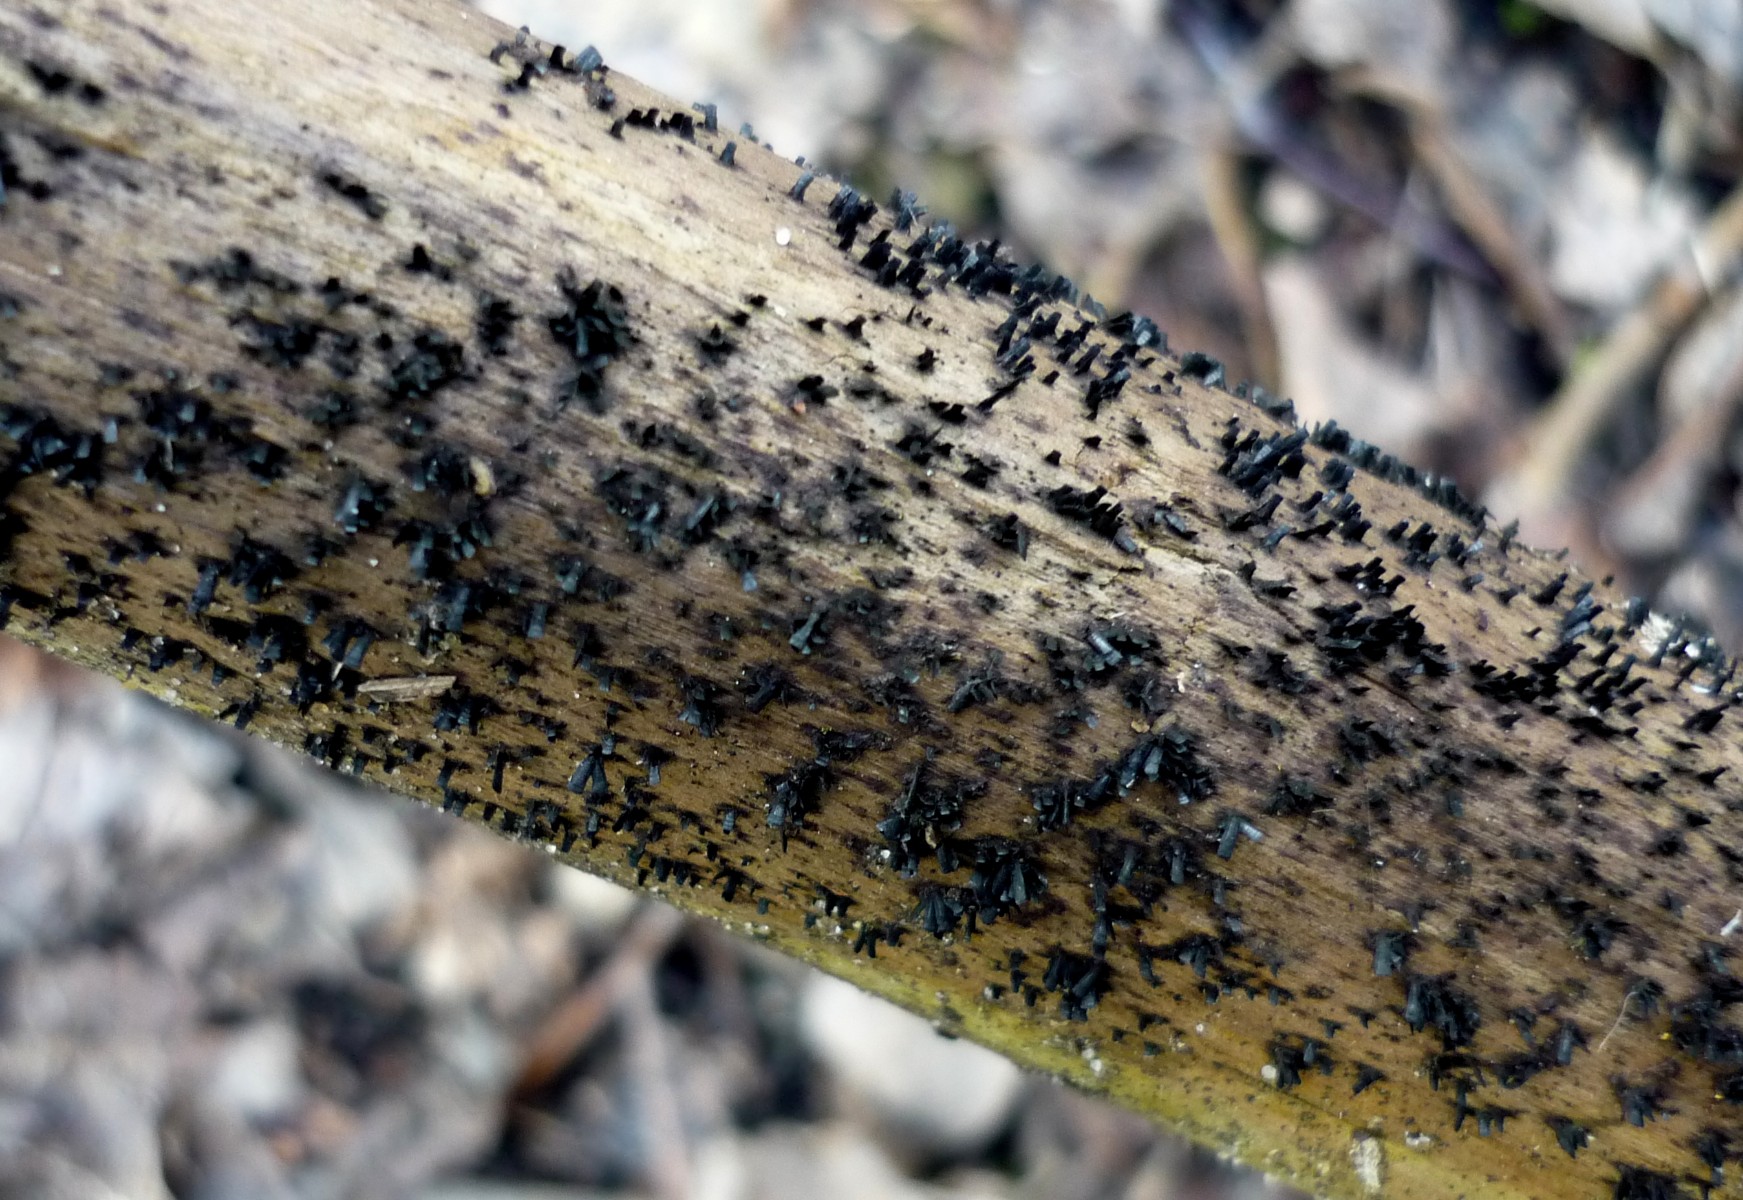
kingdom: Fungi
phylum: Ascomycota
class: Eurotiomycetes
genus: Glyphium
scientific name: Glyphium elatum
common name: kuløkse
